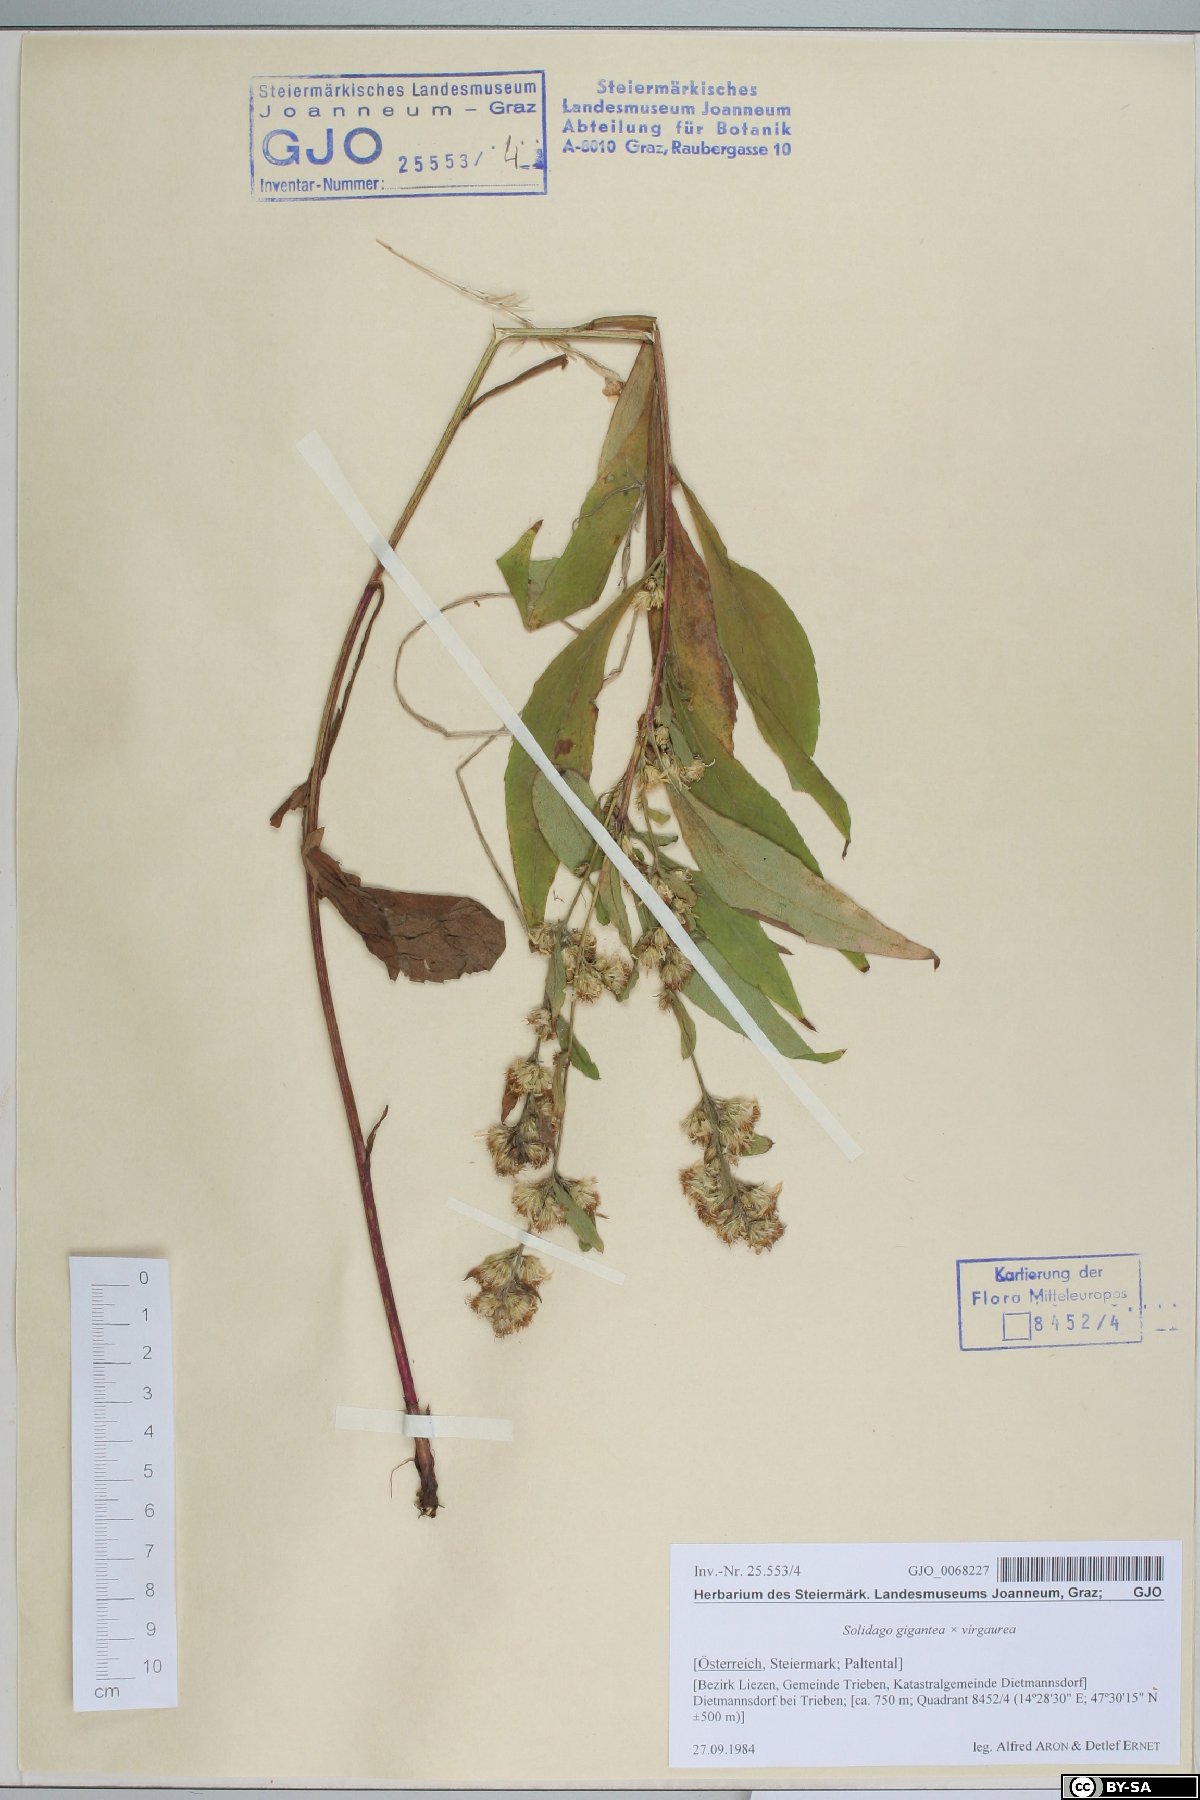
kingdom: Plantae
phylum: Tracheophyta
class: Magnoliopsida
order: Asterales
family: Asteraceae
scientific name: Asteraceae
